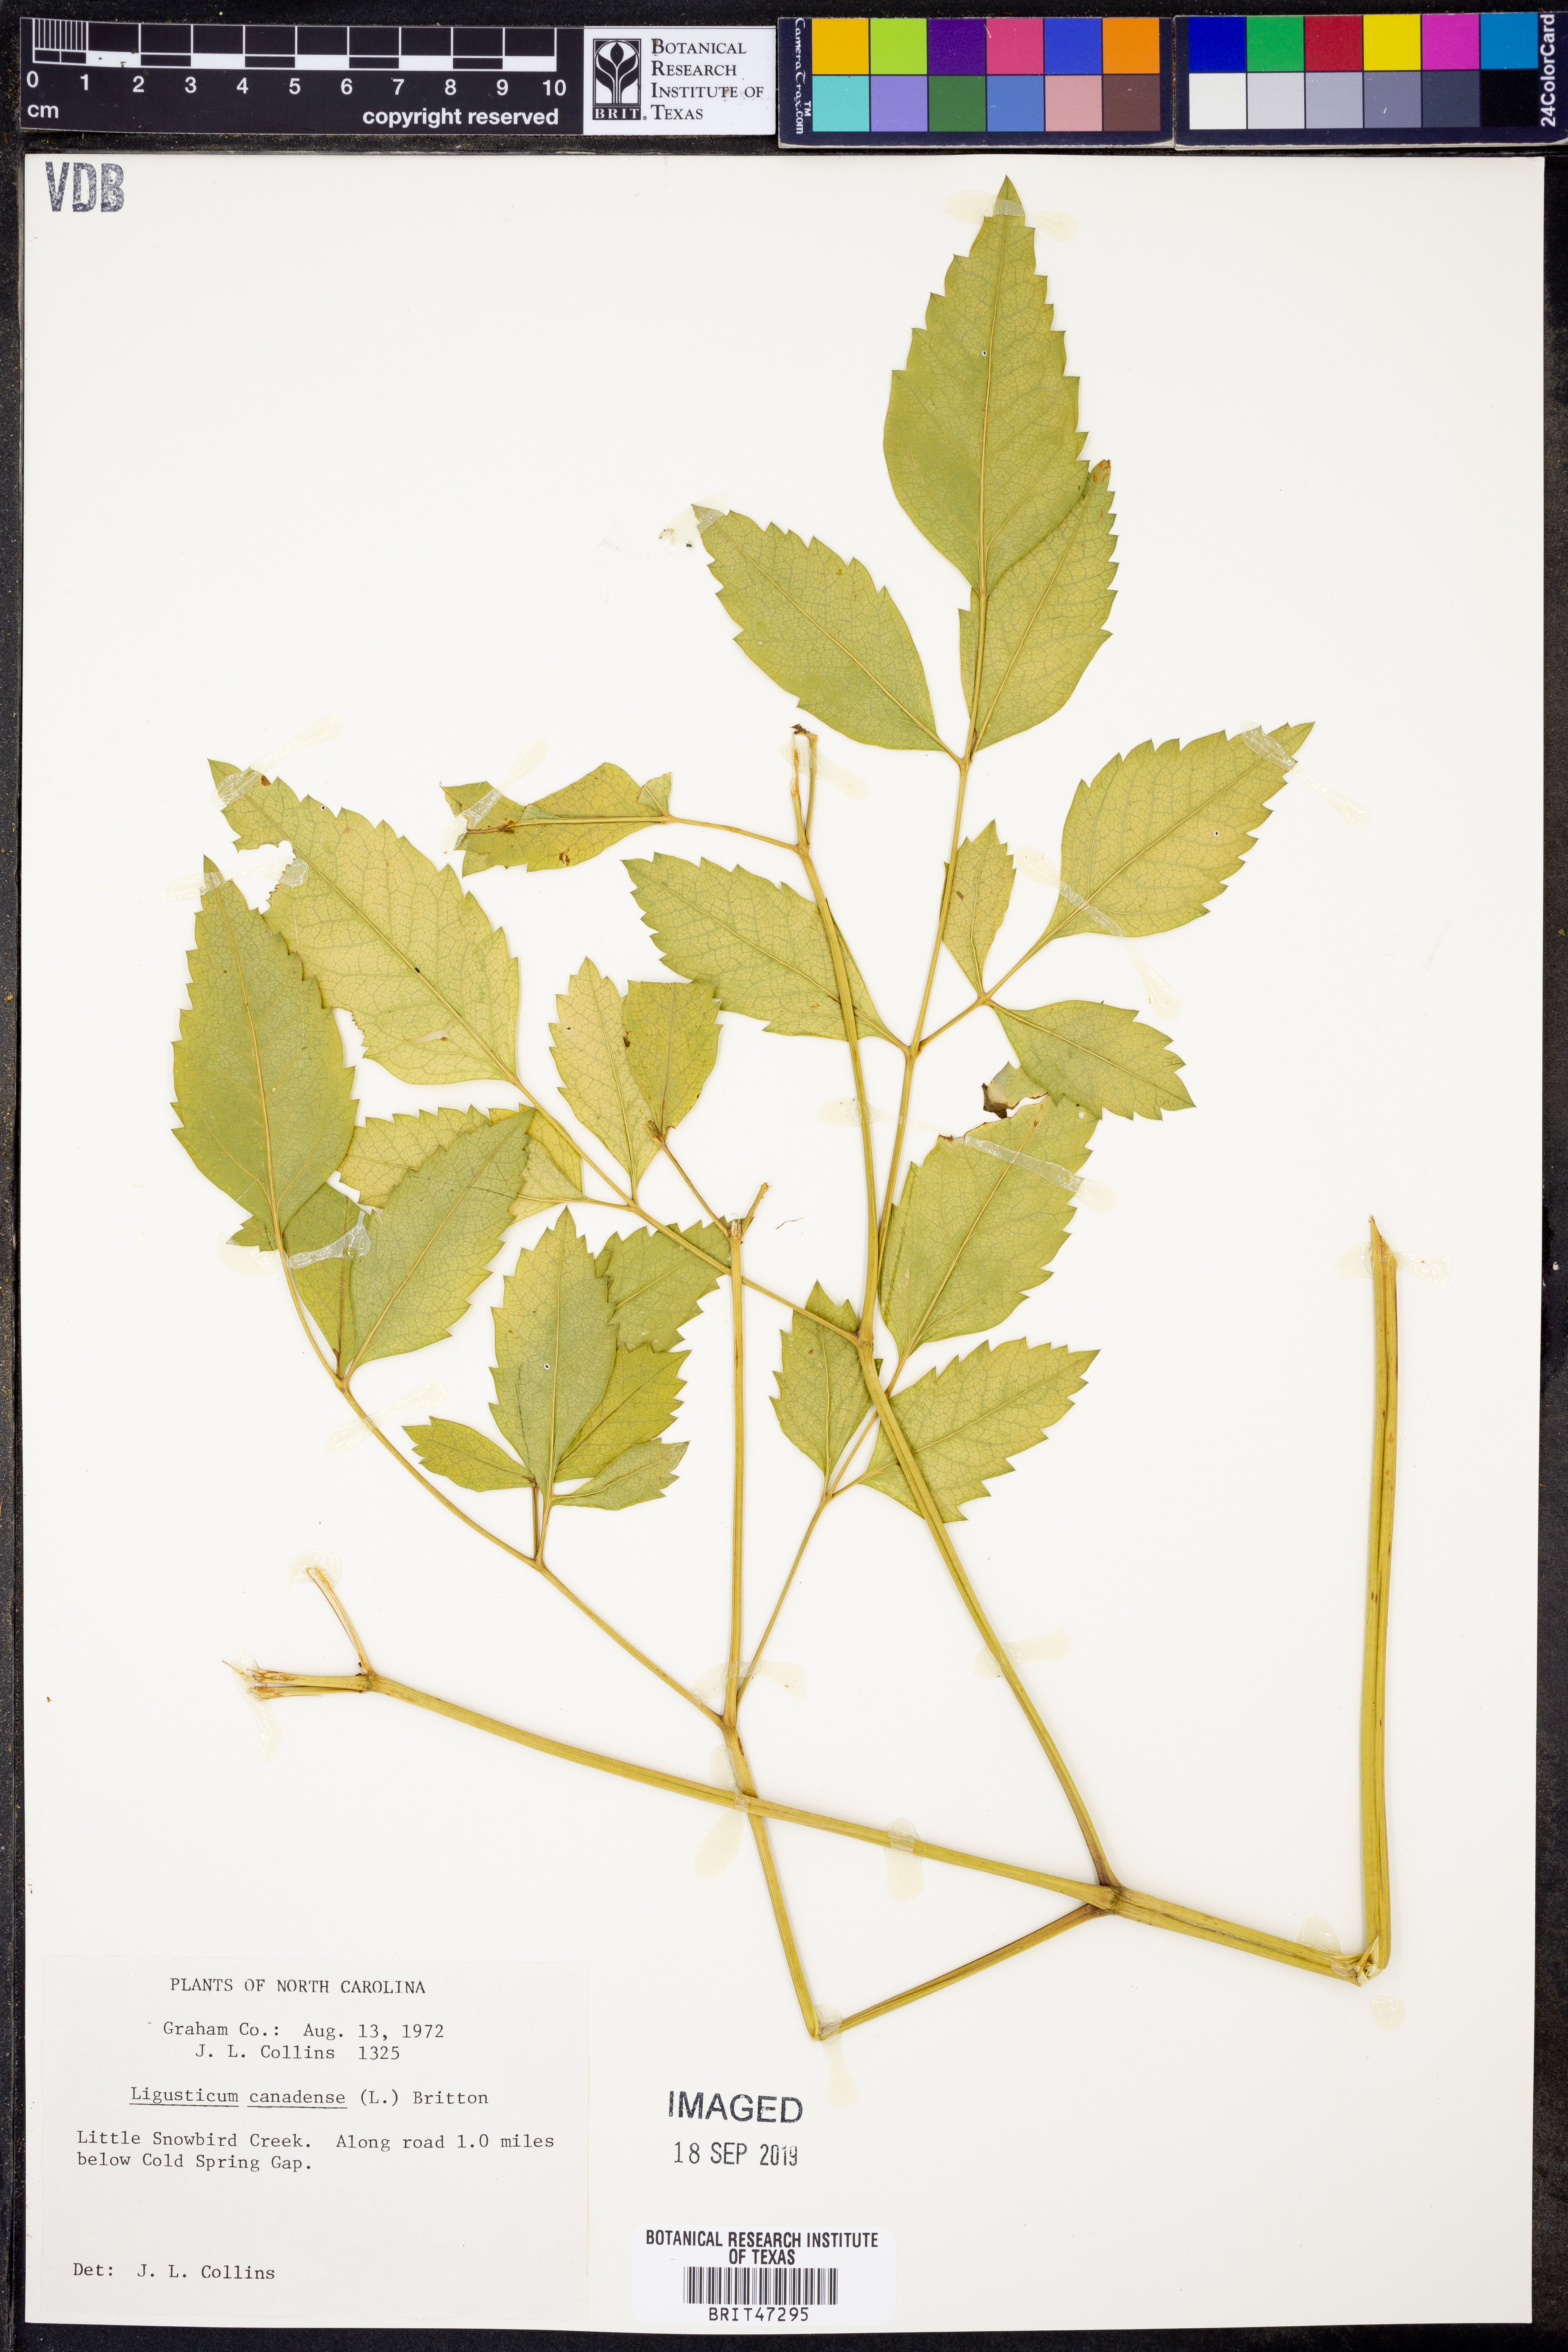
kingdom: Plantae
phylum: Tracheophyta
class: Magnoliopsida
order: Apiales
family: Apiaceae
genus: Ligusticum
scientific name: Ligusticum canadense
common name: American lovage
